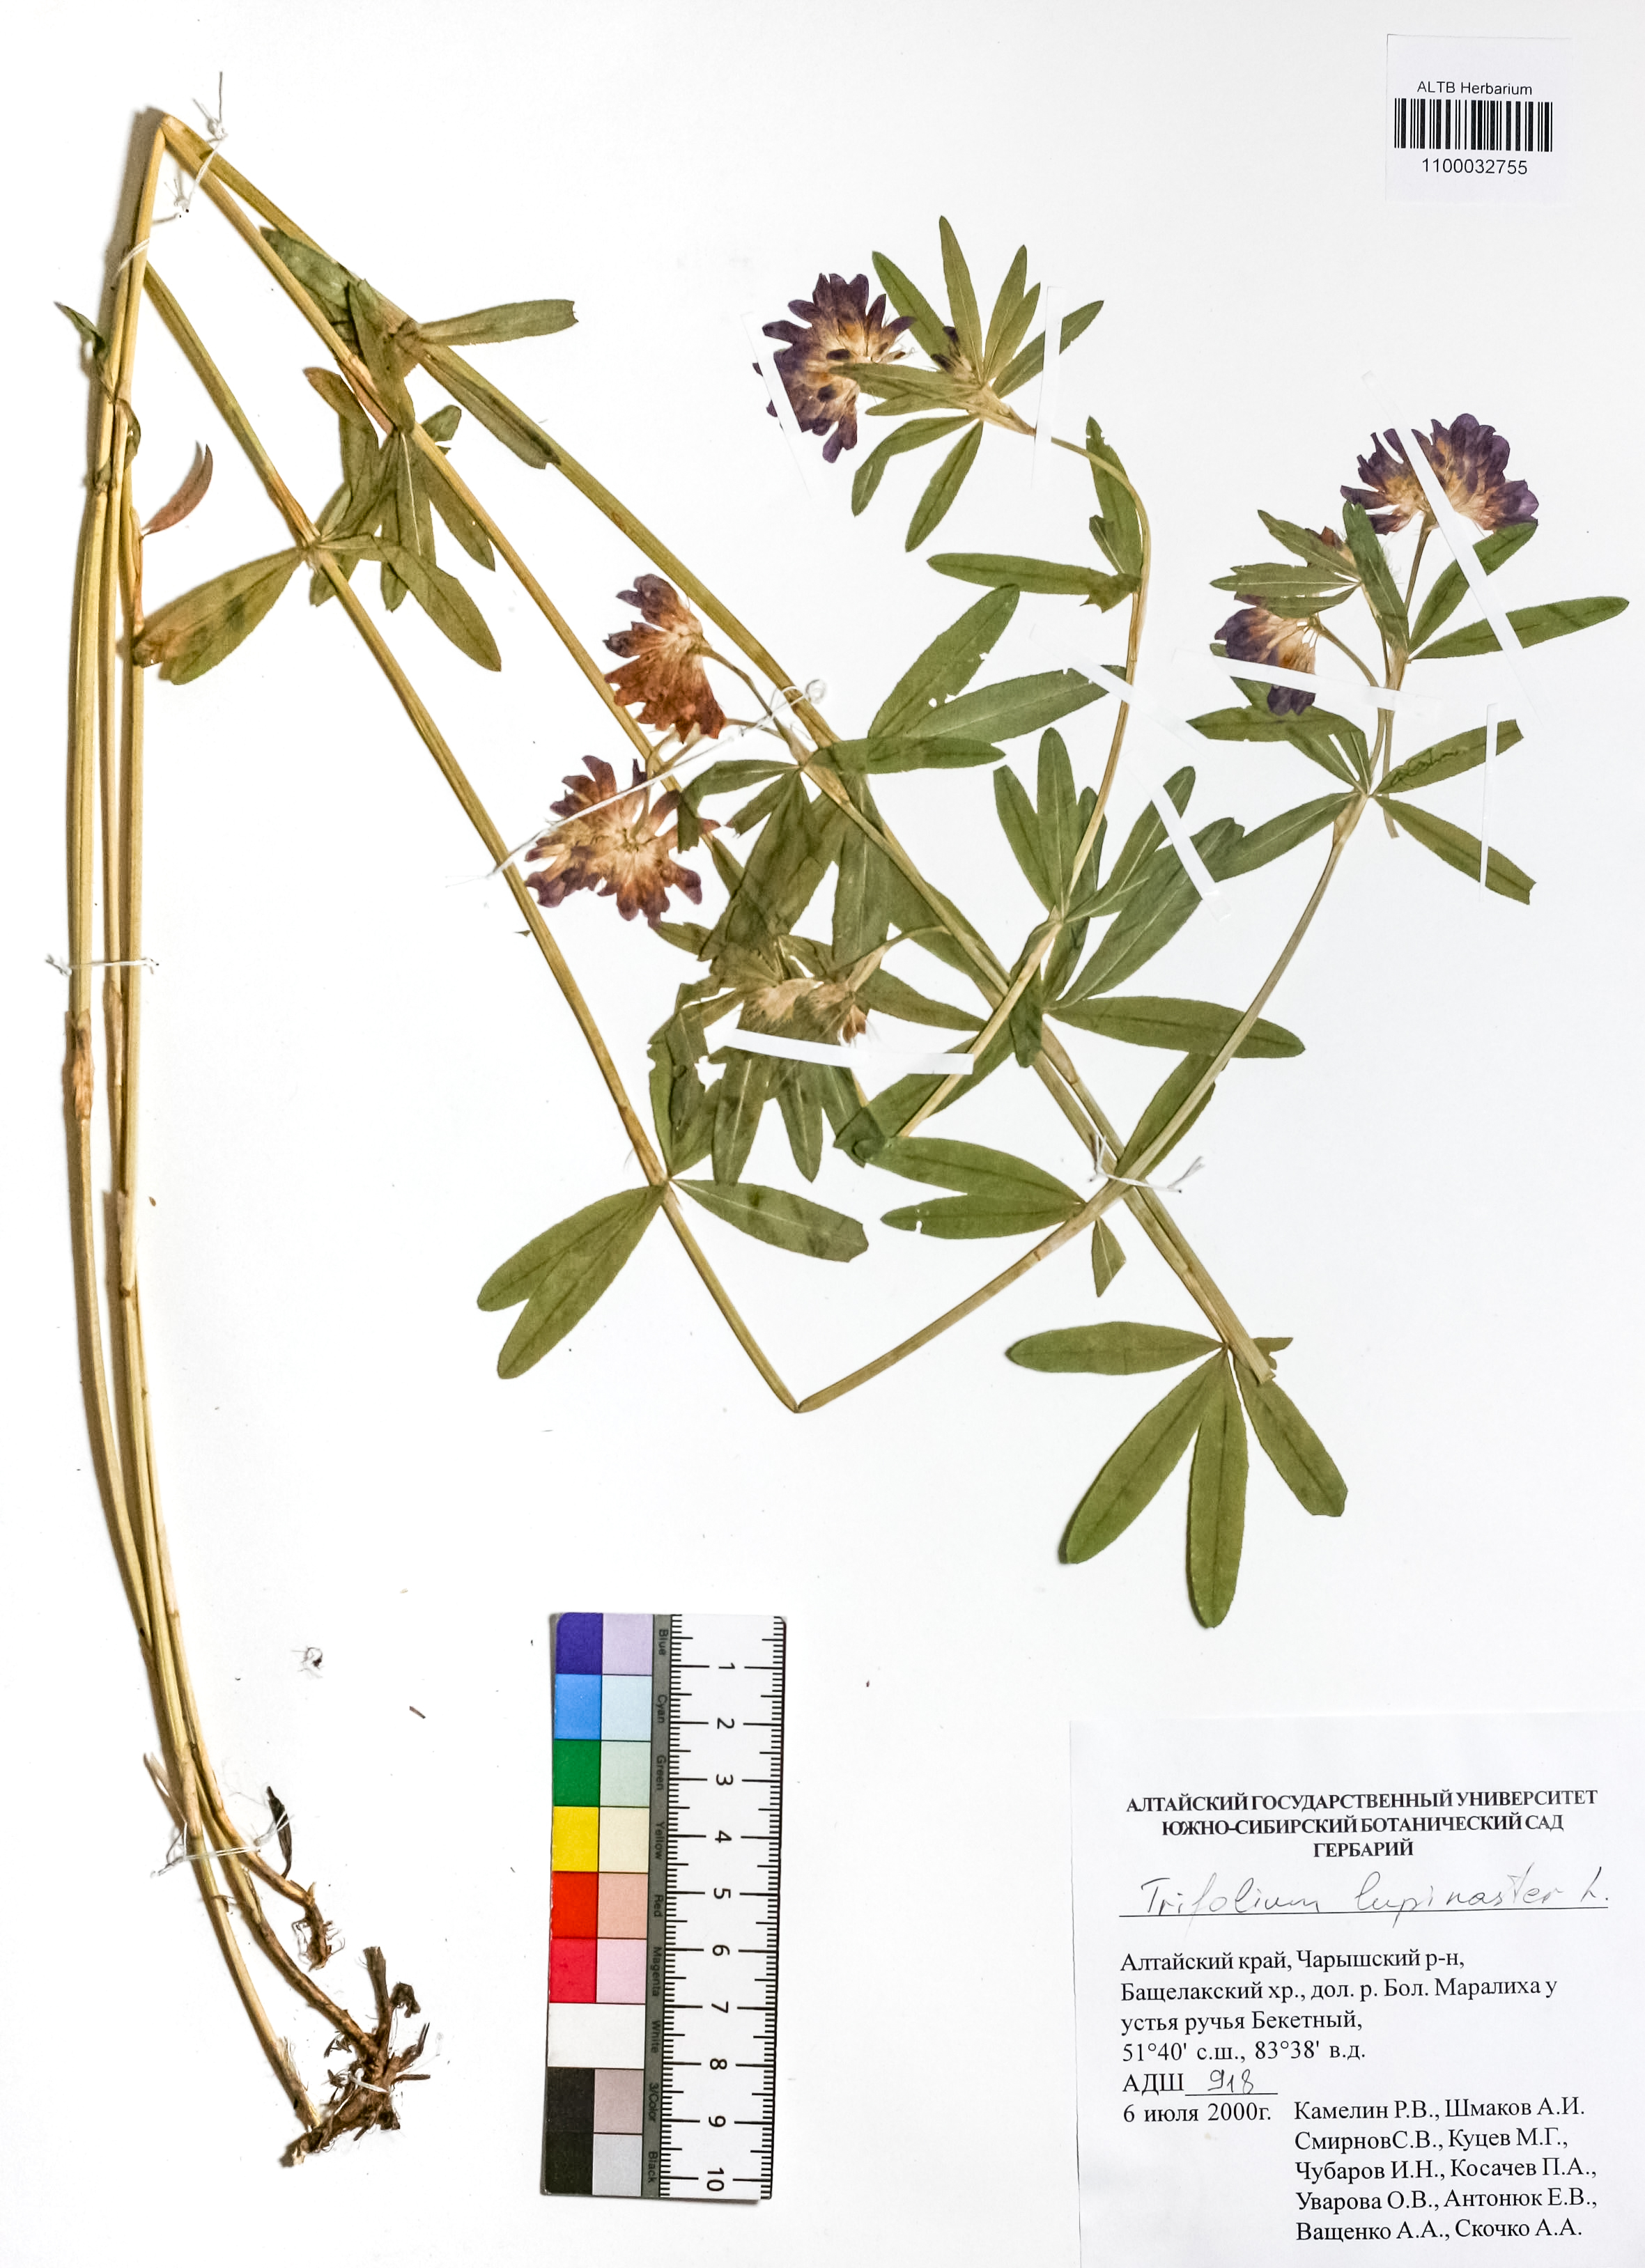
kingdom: Plantae
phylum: Tracheophyta
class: Magnoliopsida
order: Fabales
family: Fabaceae
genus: Trifolium
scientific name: Trifolium lupinaster
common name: Lupine clover
